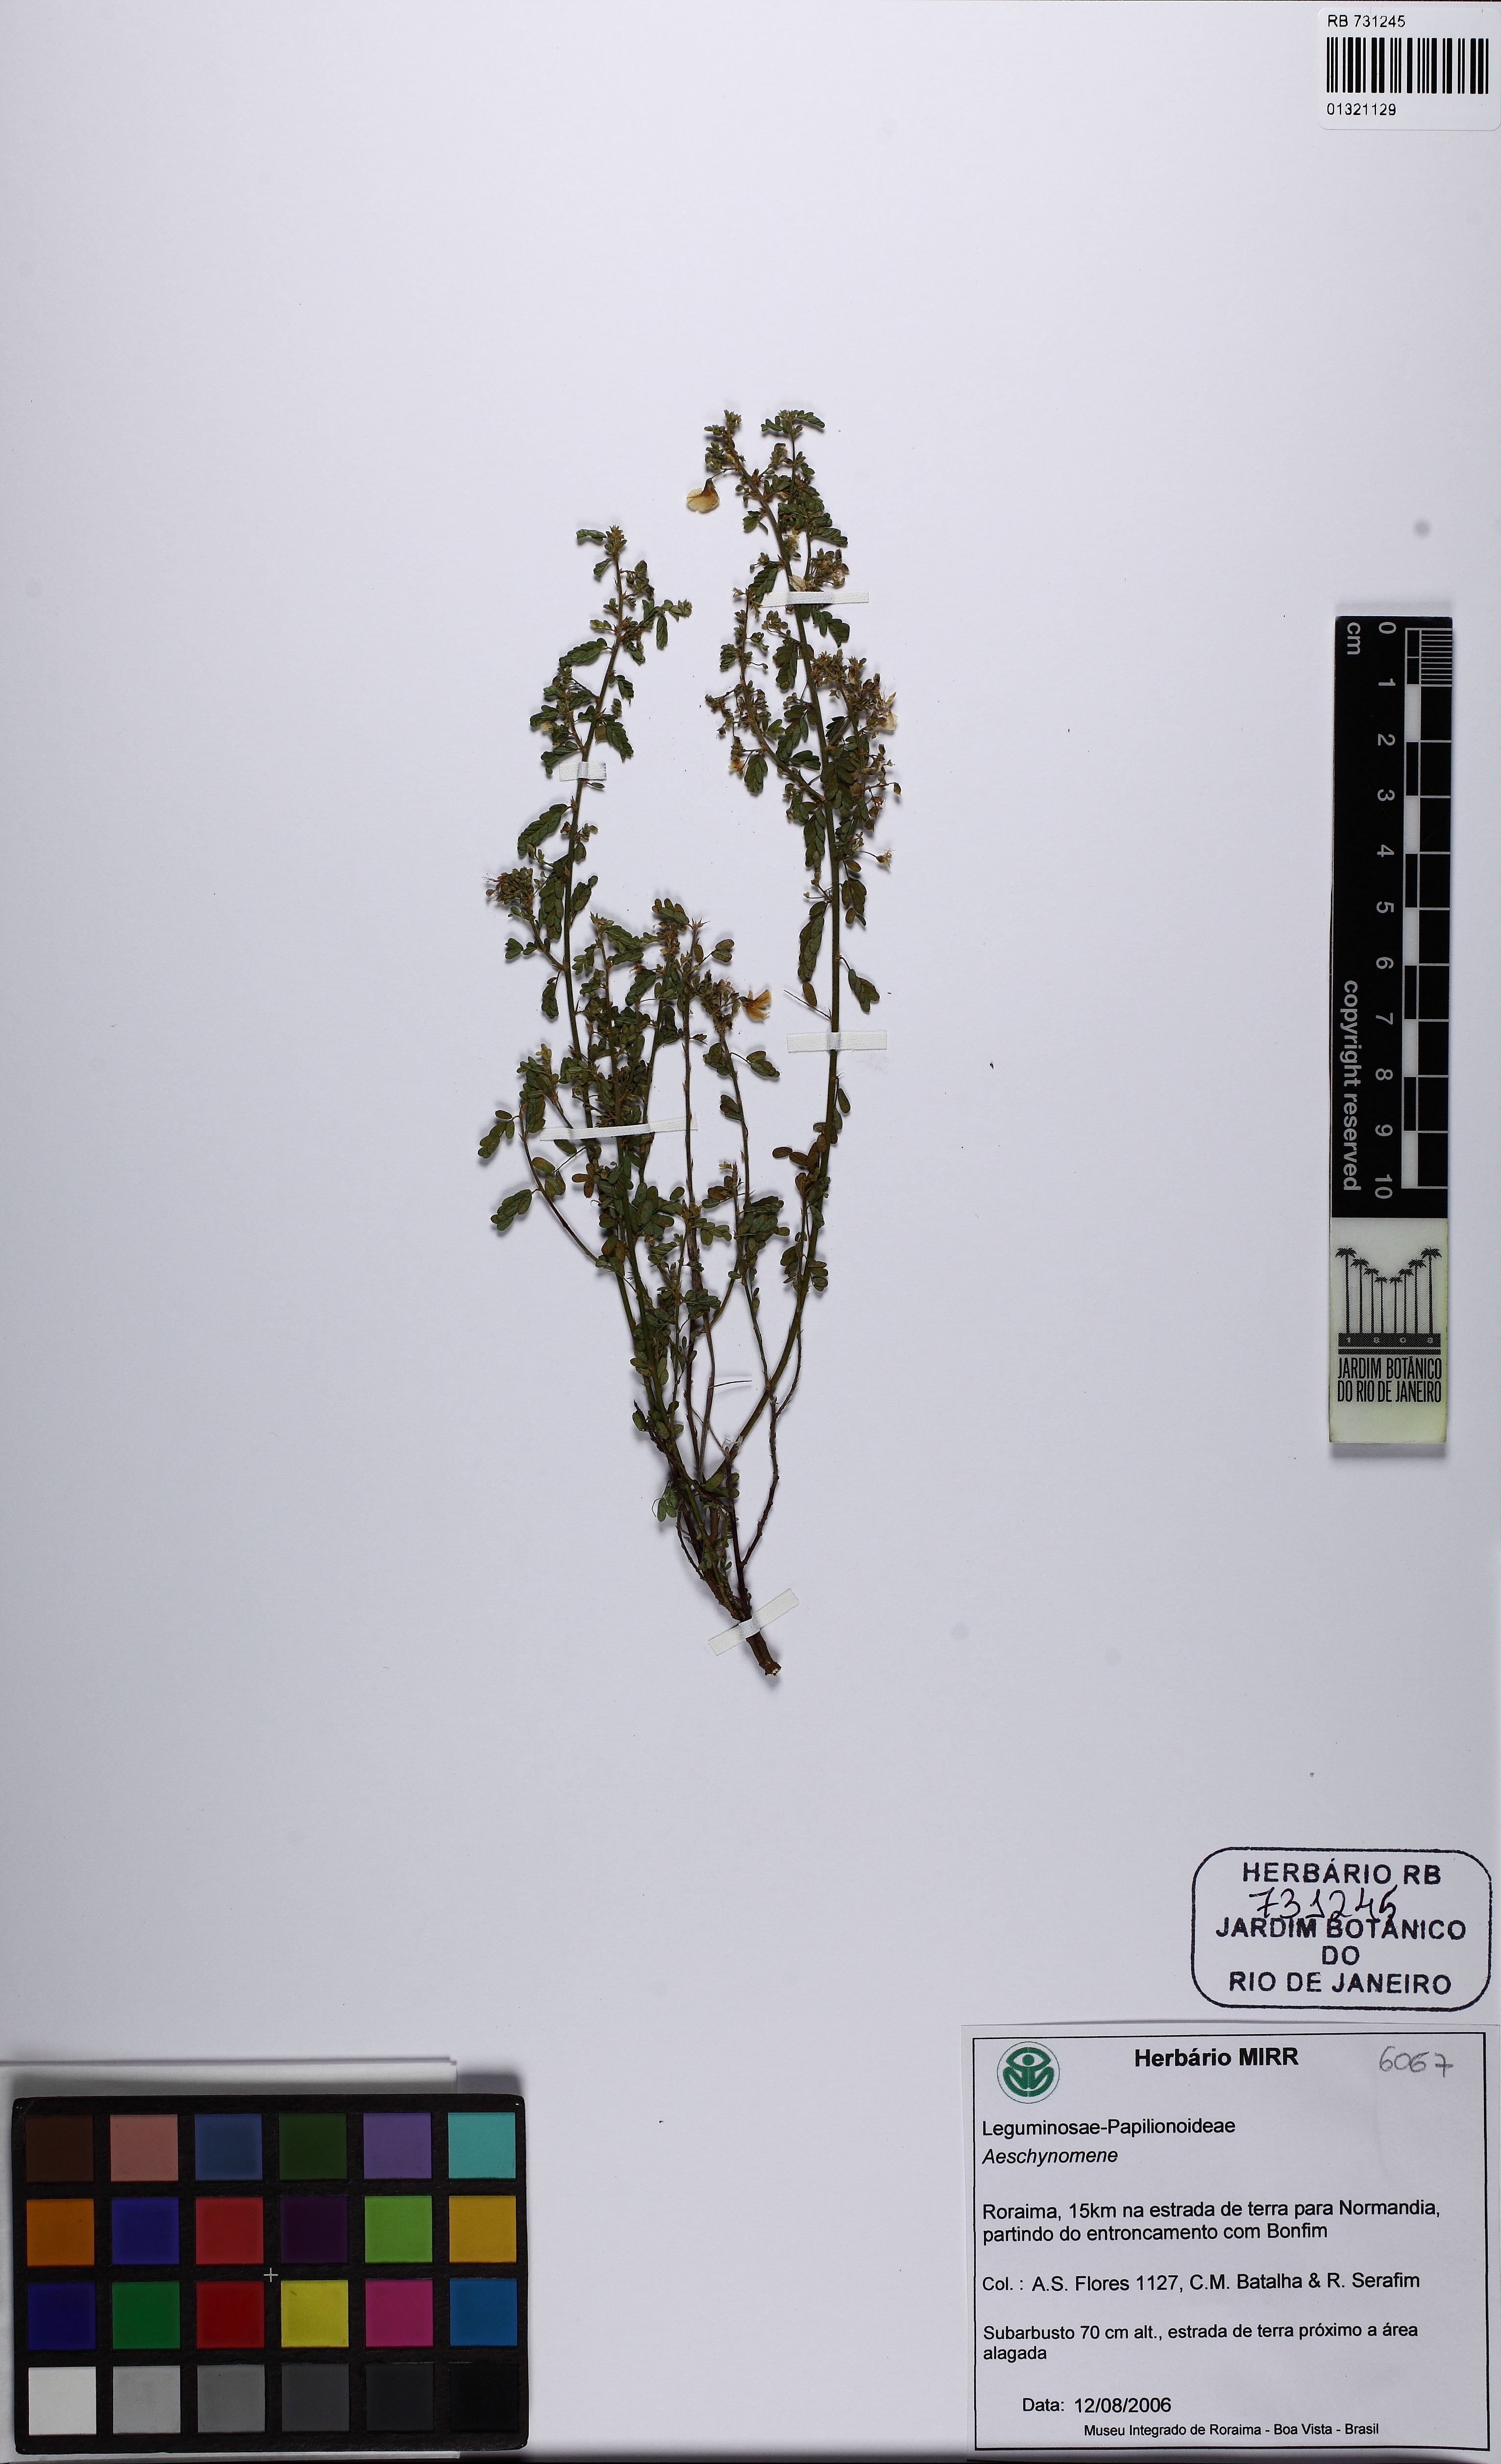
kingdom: Plantae
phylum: Tracheophyta
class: Magnoliopsida
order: Fabales
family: Fabaceae
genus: Aeschynomene
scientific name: Aeschynomene
